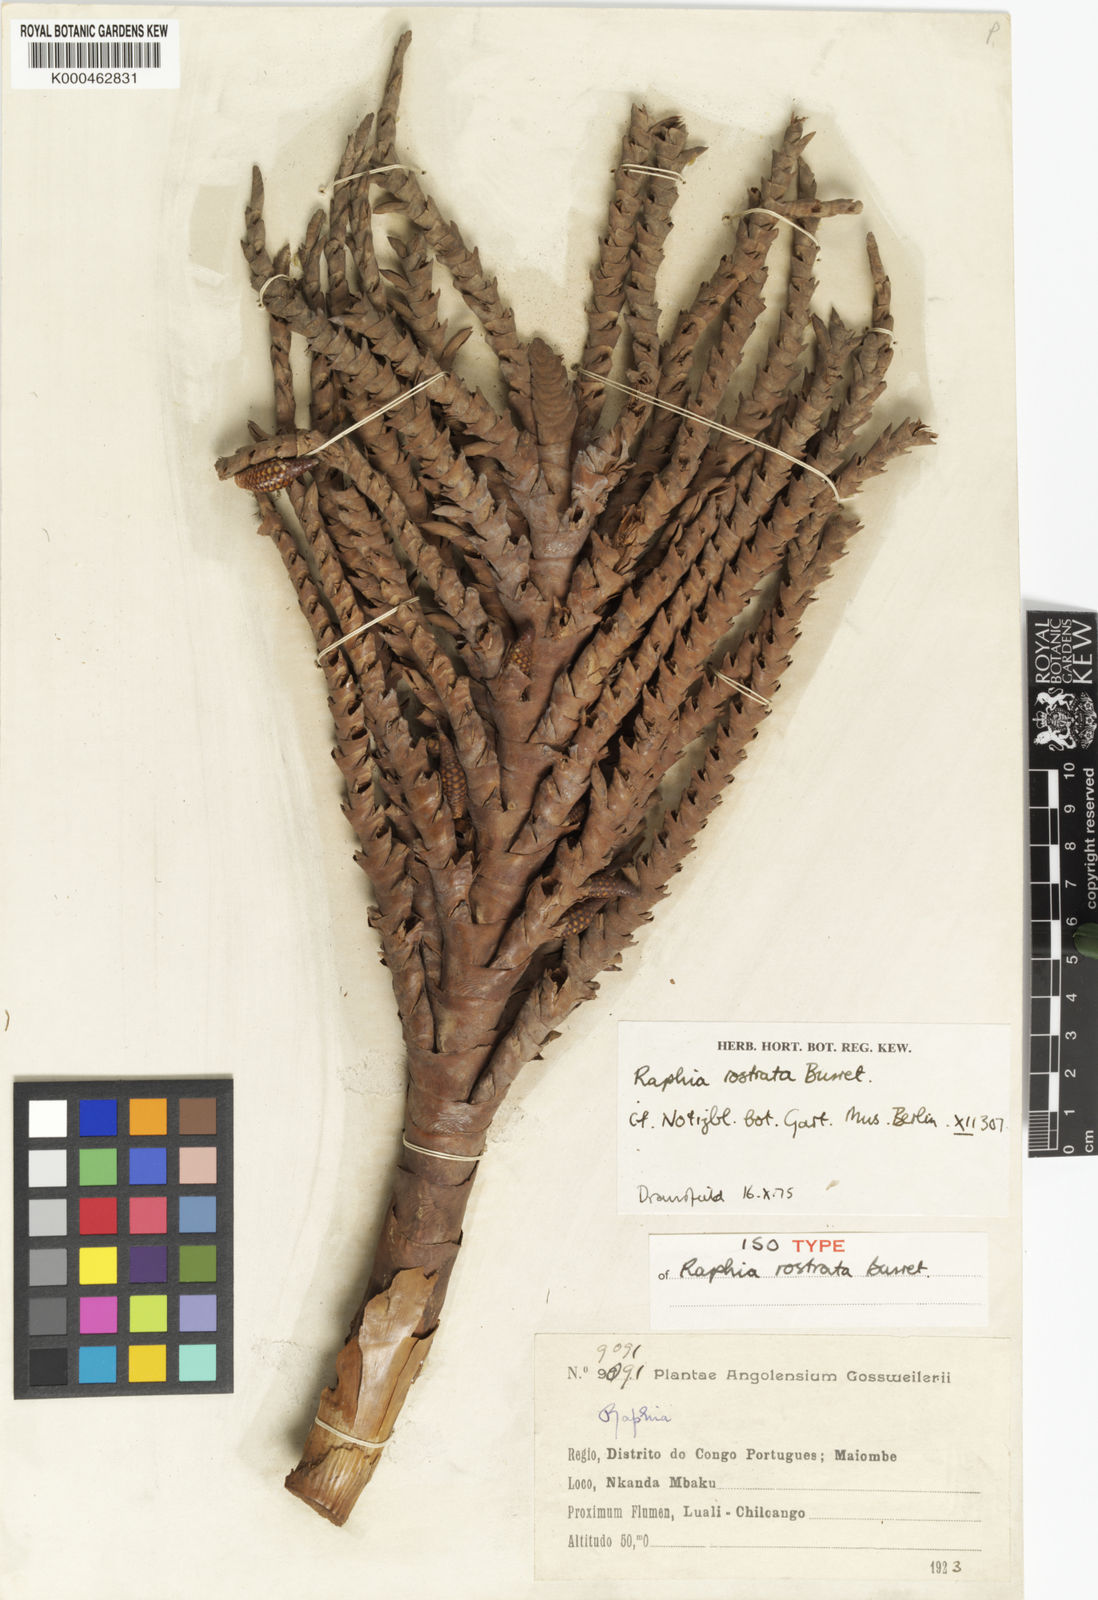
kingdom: Plantae
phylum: Tracheophyta
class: Liliopsida
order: Arecales
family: Arecaceae
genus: Raphia
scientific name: Raphia rostrata
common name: Raphia palm
